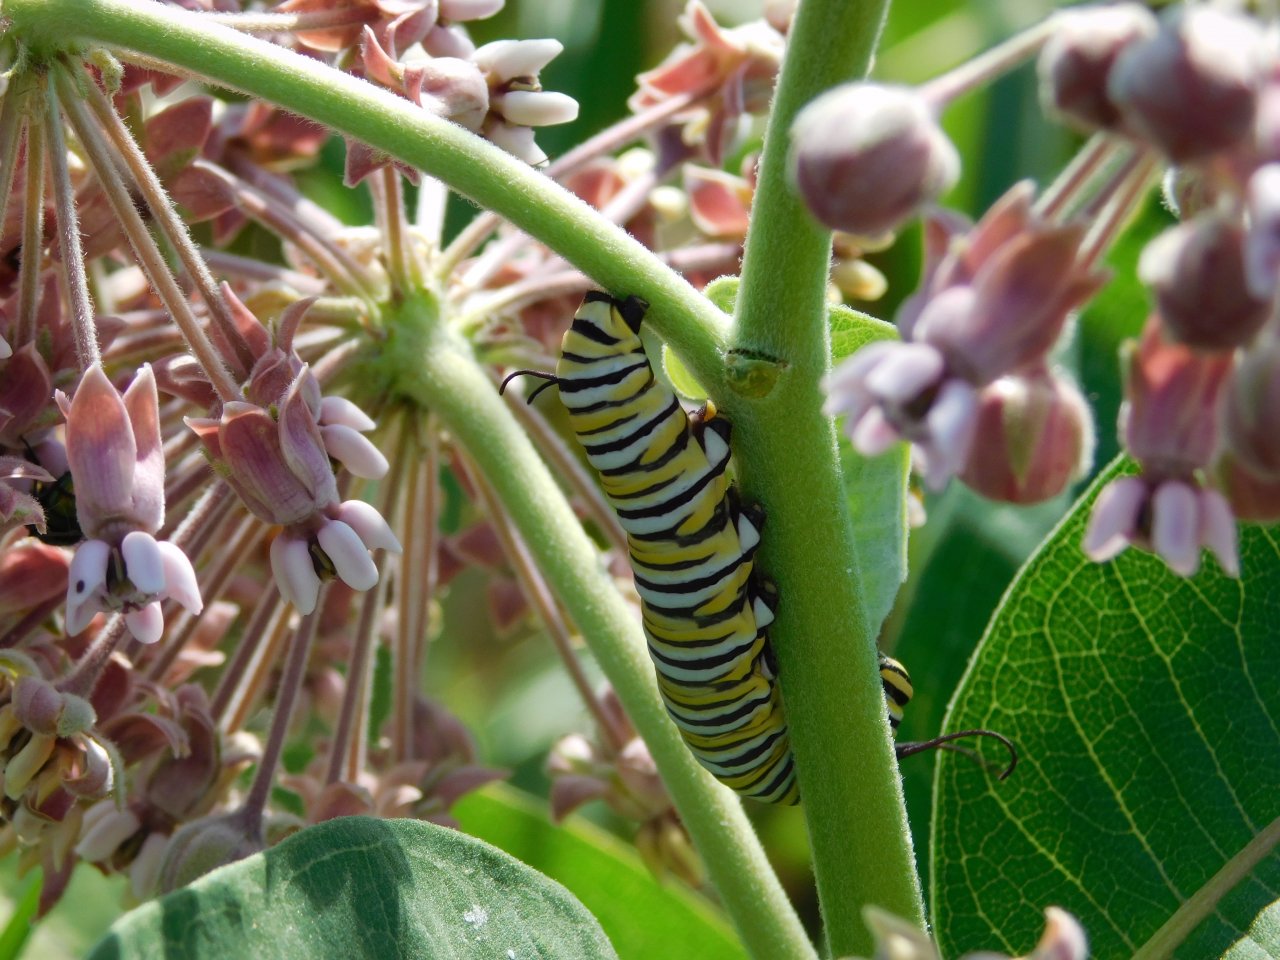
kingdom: Animalia
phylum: Arthropoda
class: Insecta
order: Lepidoptera
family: Nymphalidae
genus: Danaus
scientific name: Danaus plexippus
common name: Monarch
